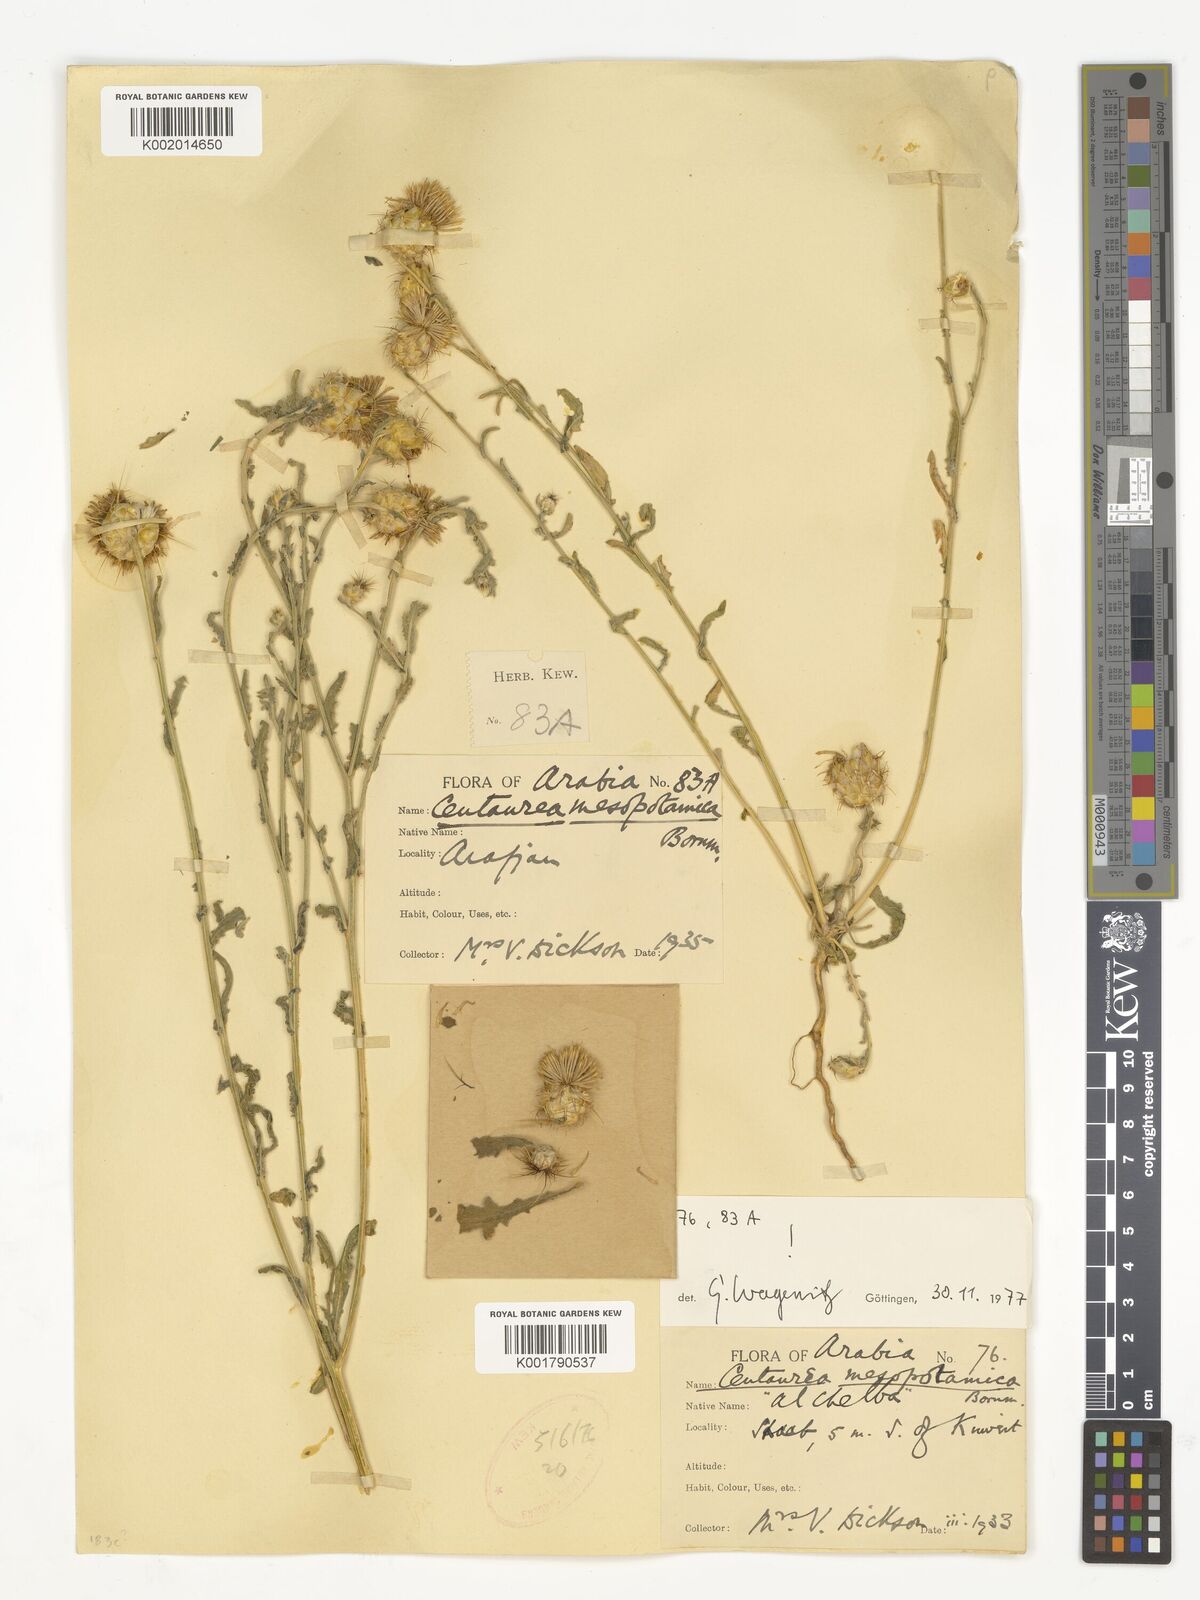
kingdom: Plantae
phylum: Tracheophyta
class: Magnoliopsida
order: Asterales
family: Asteraceae
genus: Centaurea
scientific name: Centaurea mesopotamica
